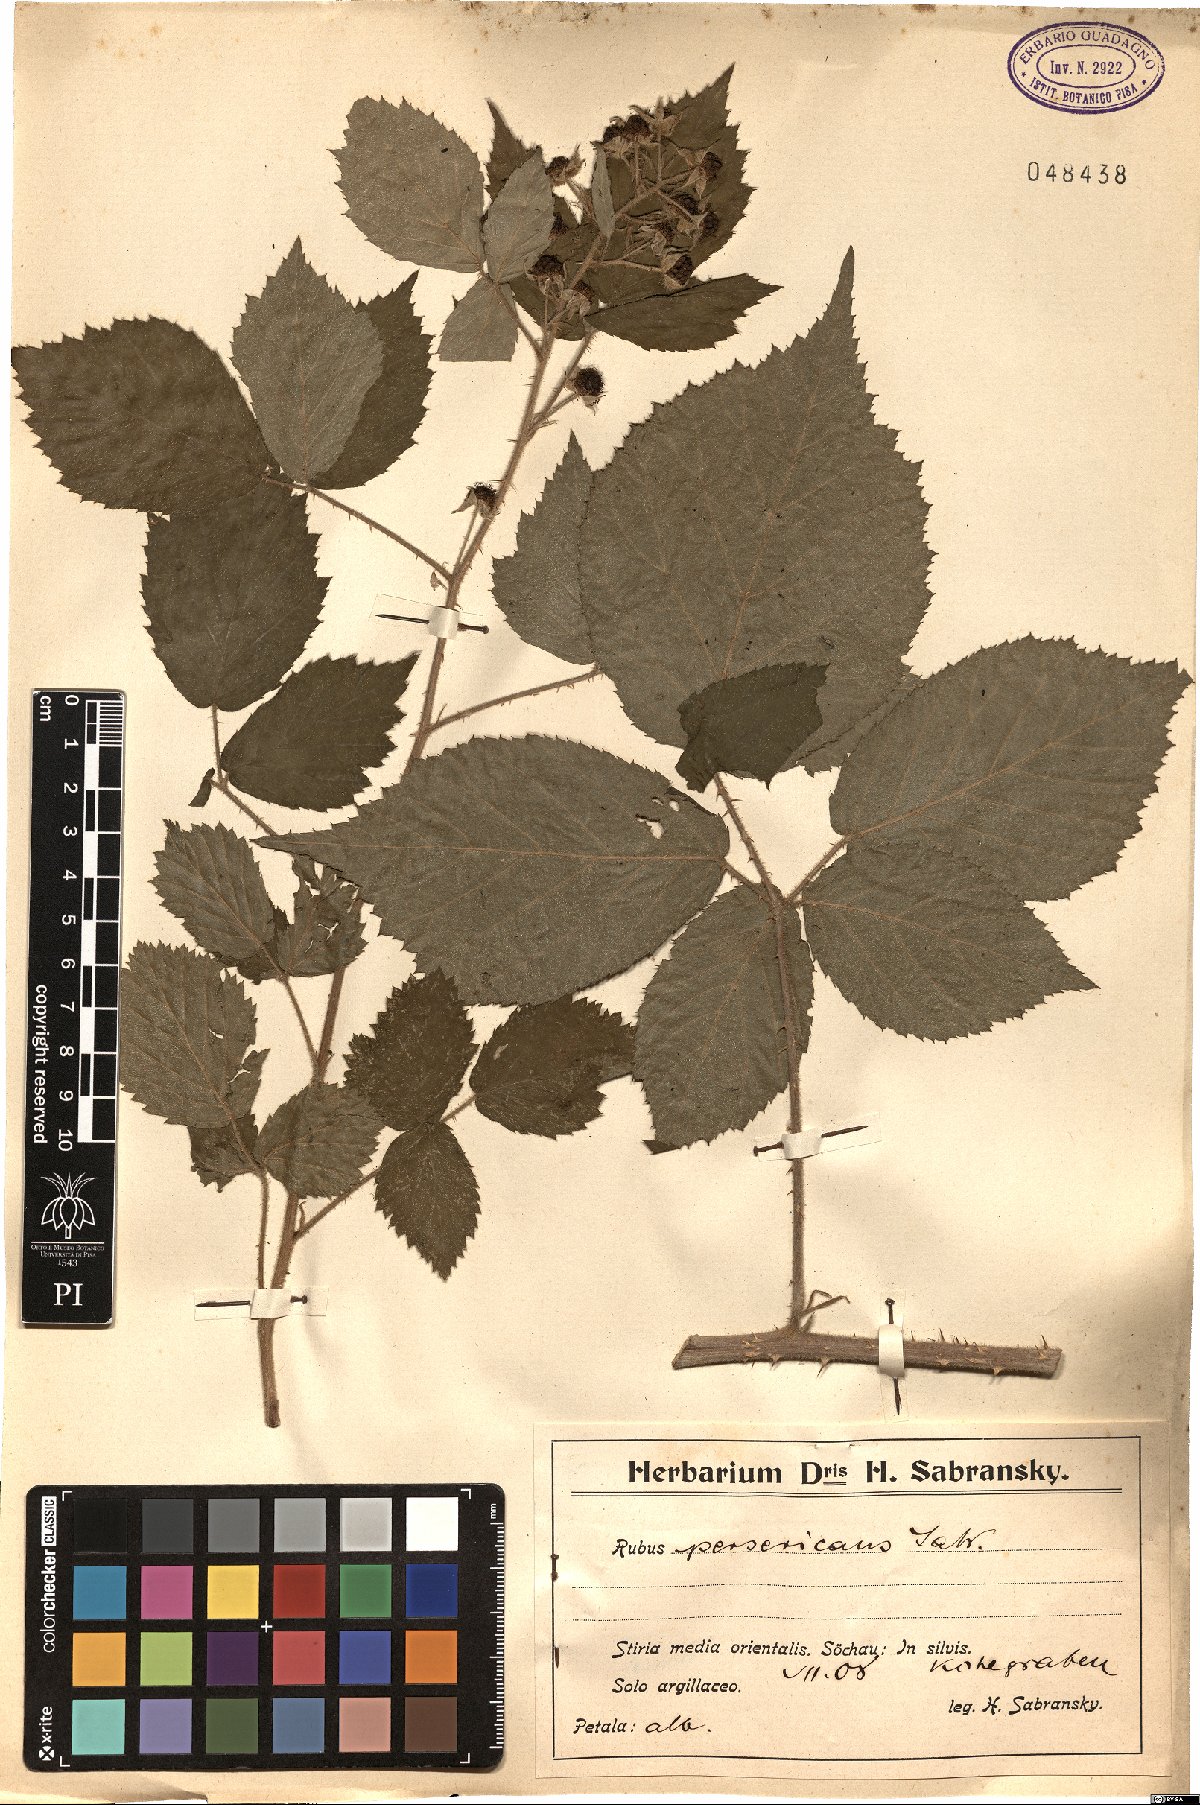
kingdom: Plantae
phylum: Tracheophyta
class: Magnoliopsida
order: Rosales
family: Rosaceae
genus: Rubus
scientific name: Rubus persericans
